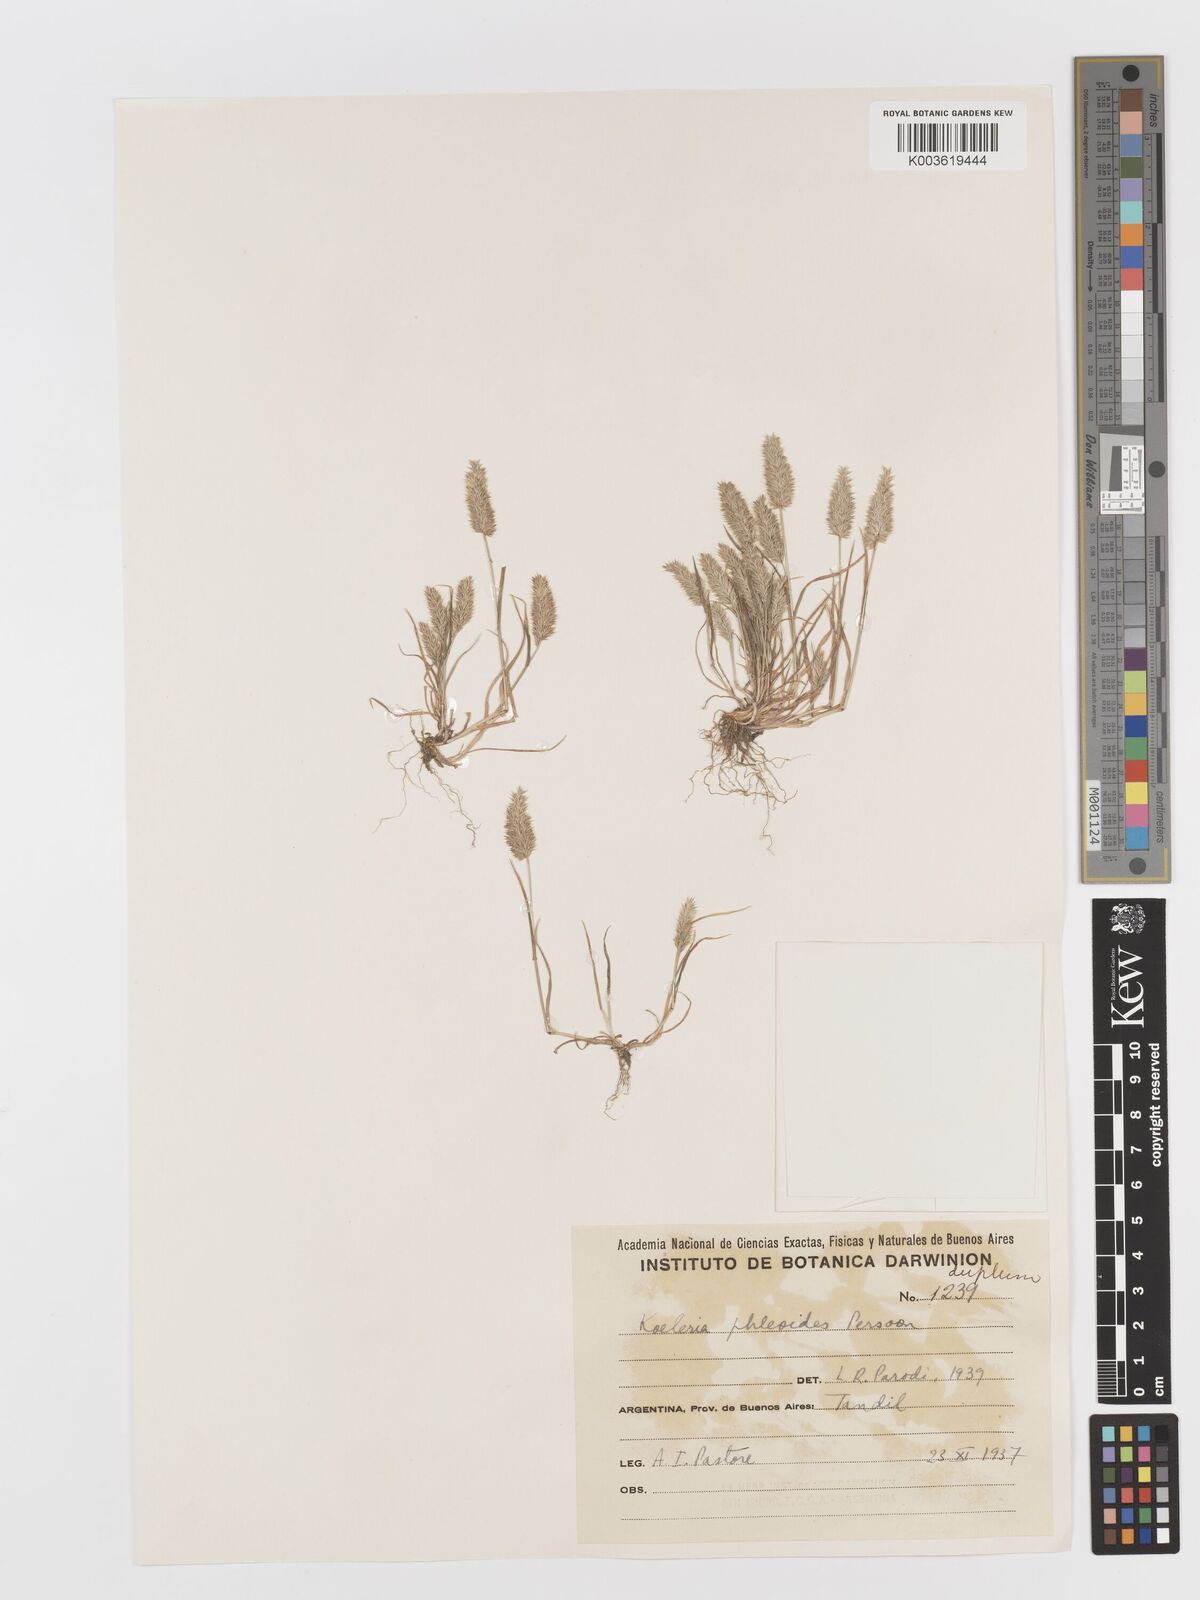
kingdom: Plantae
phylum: Tracheophyta
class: Liliopsida
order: Poales
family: Poaceae
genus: Rostraria
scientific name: Rostraria cristata
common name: Mediterranean hair-grass
